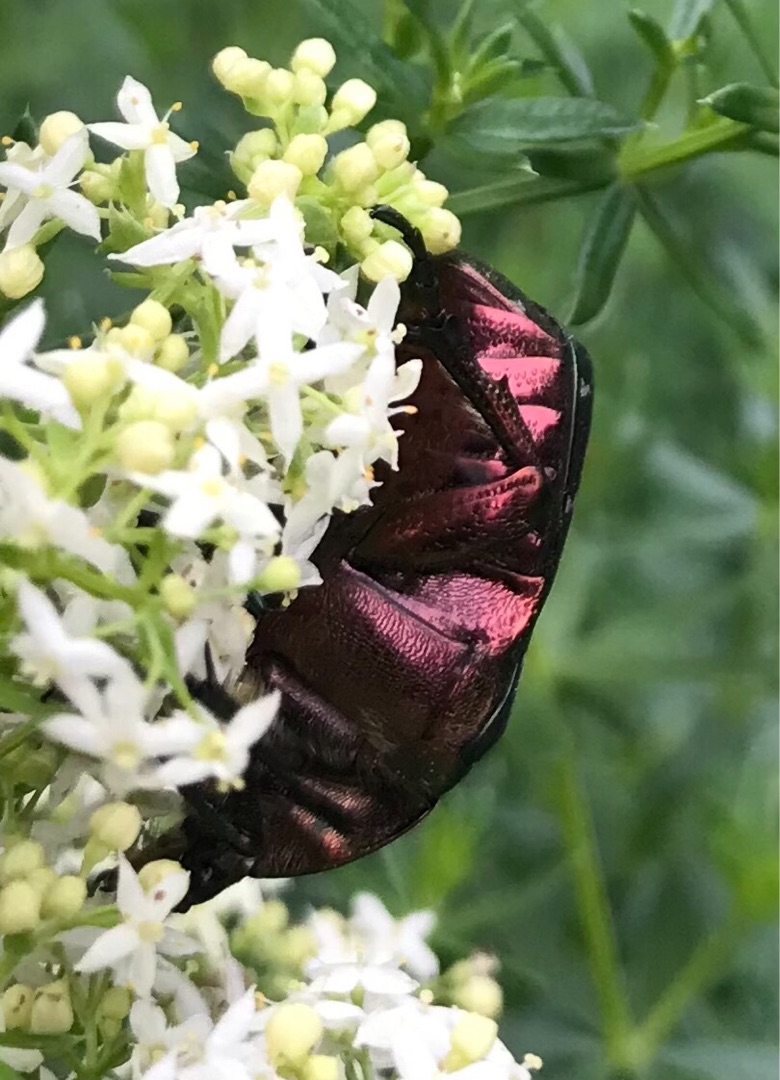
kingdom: Animalia
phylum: Arthropoda
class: Insecta
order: Coleoptera
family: Scarabaeidae
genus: Cetonia
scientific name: Cetonia aurata
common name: Grøn guldbasse
